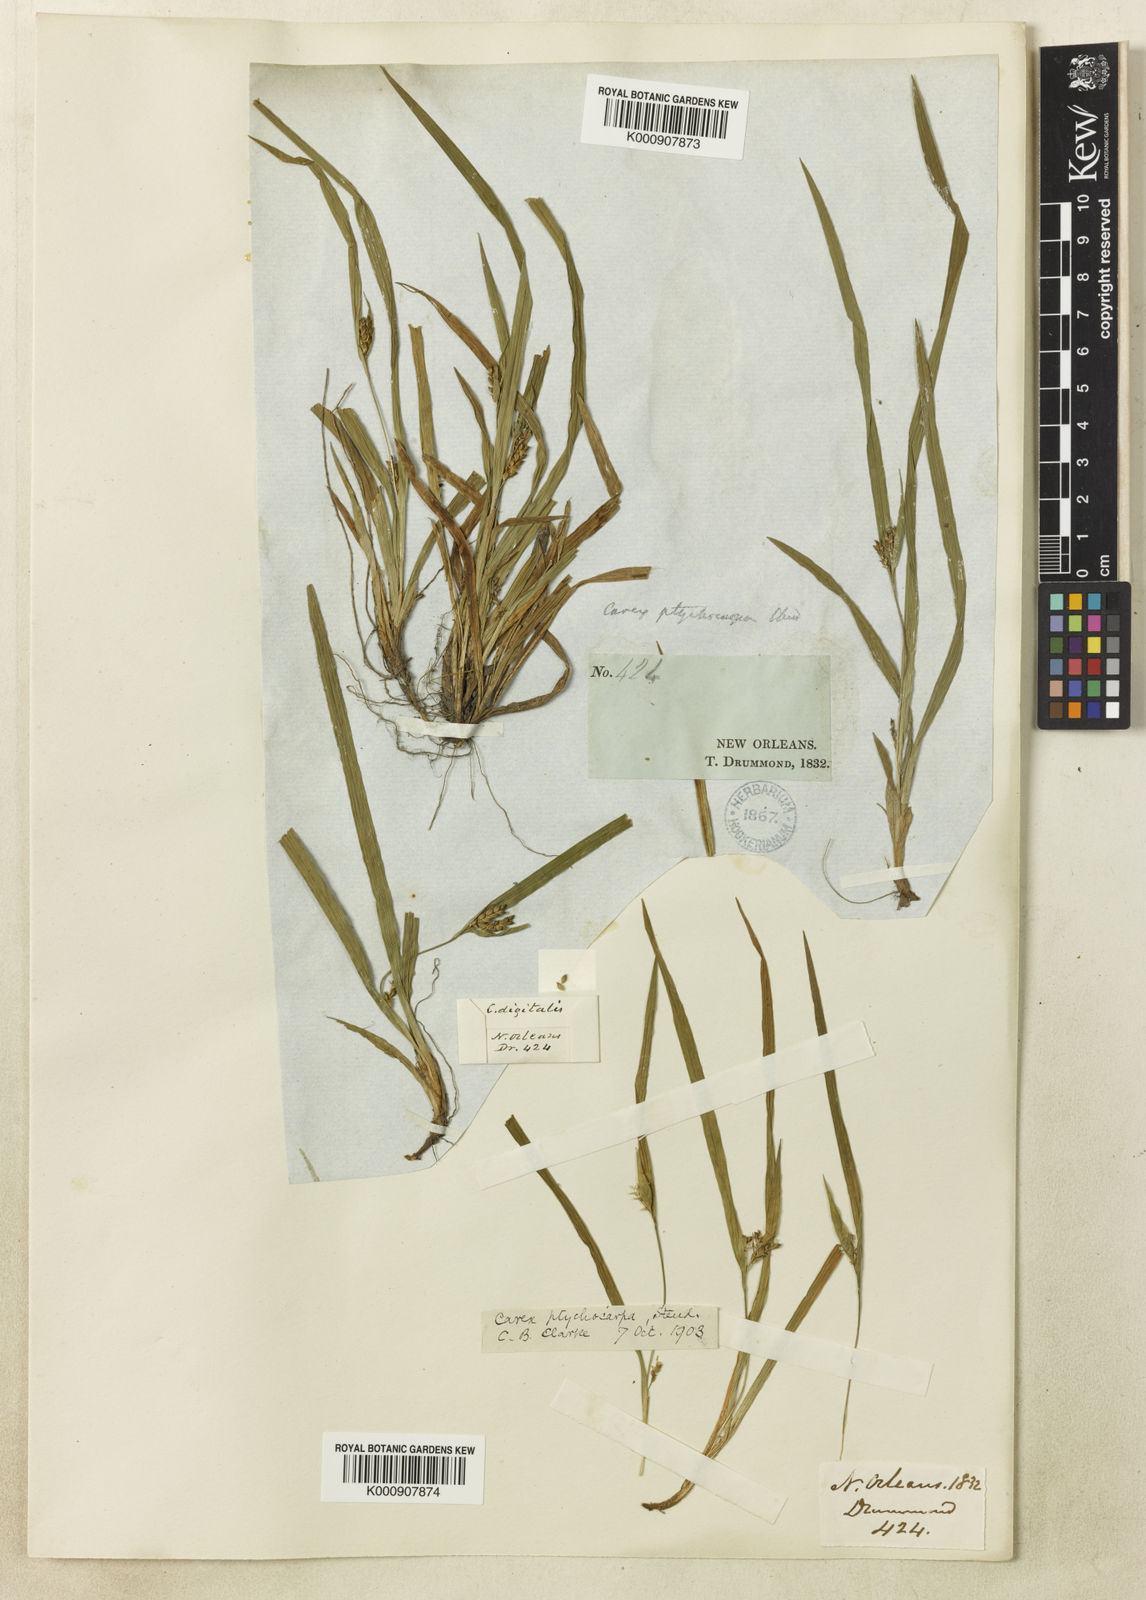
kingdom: Plantae
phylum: Tracheophyta
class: Liliopsida
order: Poales
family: Cyperaceae
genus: Carex
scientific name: Carex abscondita
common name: Thicket sedge
